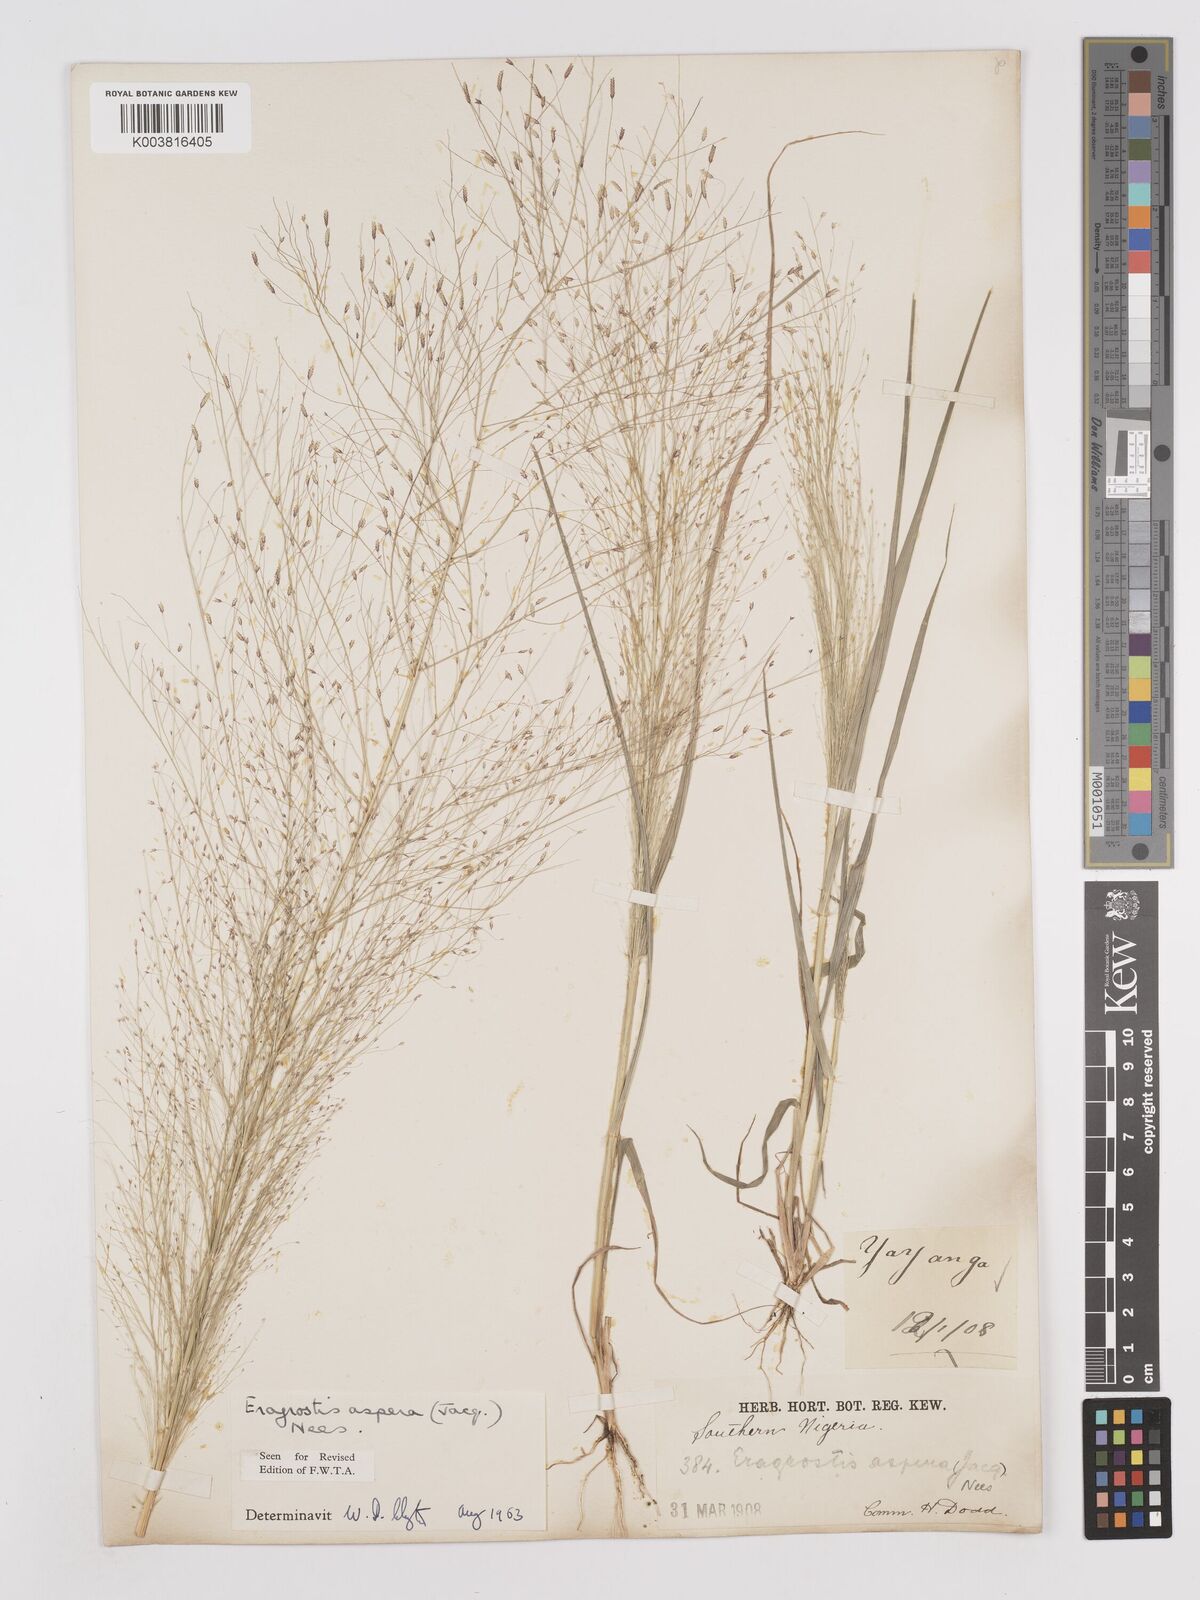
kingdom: Plantae
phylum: Tracheophyta
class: Liliopsida
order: Poales
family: Poaceae
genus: Eragrostis
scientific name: Eragrostis aspera
